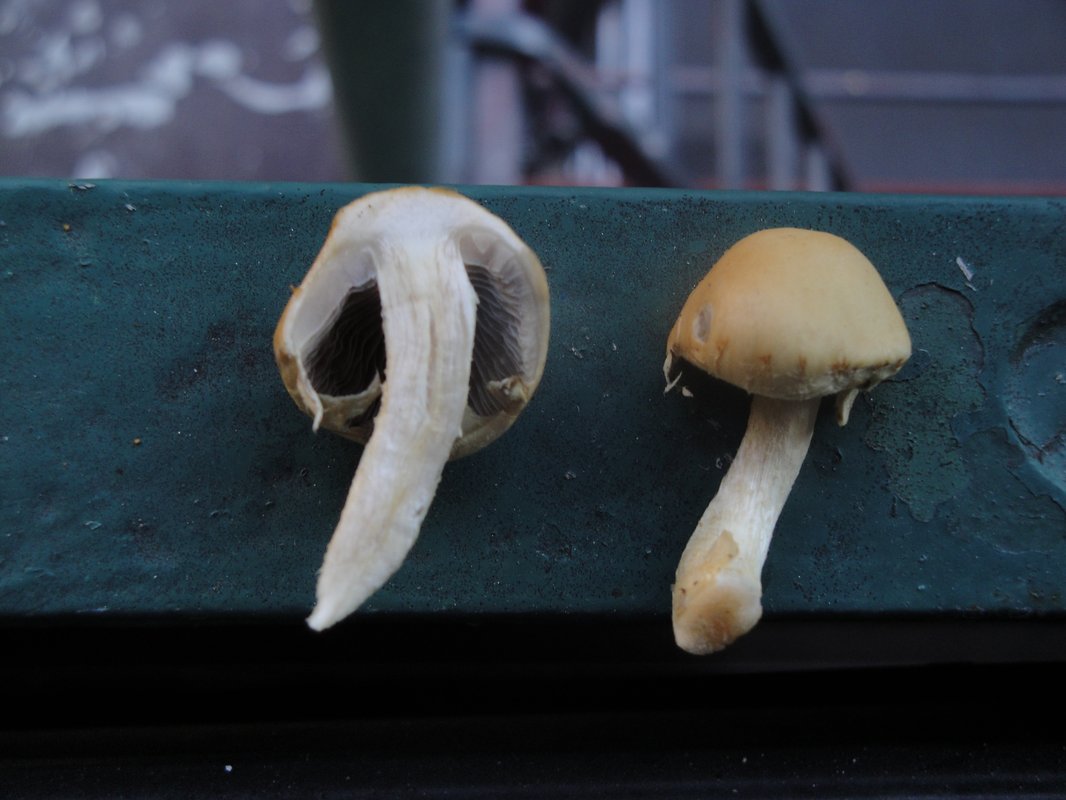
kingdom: Fungi
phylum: Basidiomycota
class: Agaricomycetes
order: Agaricales
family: Strophariaceae
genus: Leratiomyces
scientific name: Leratiomyces percevalii
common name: træflis-bredblad
